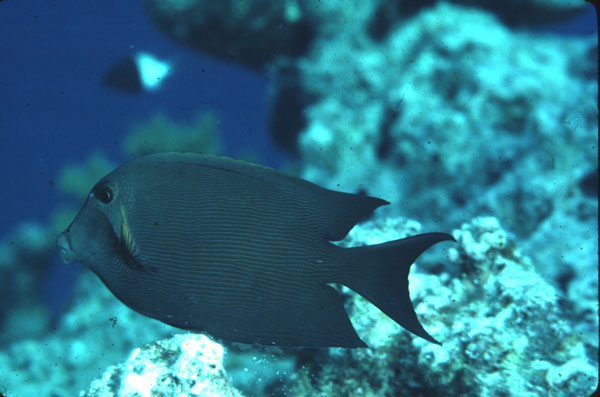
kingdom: Animalia
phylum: Chordata
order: Perciformes
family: Acanthuridae
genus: Ctenochaetus
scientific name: Ctenochaetus striatus
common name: Bristle-toothed surgeonfish
